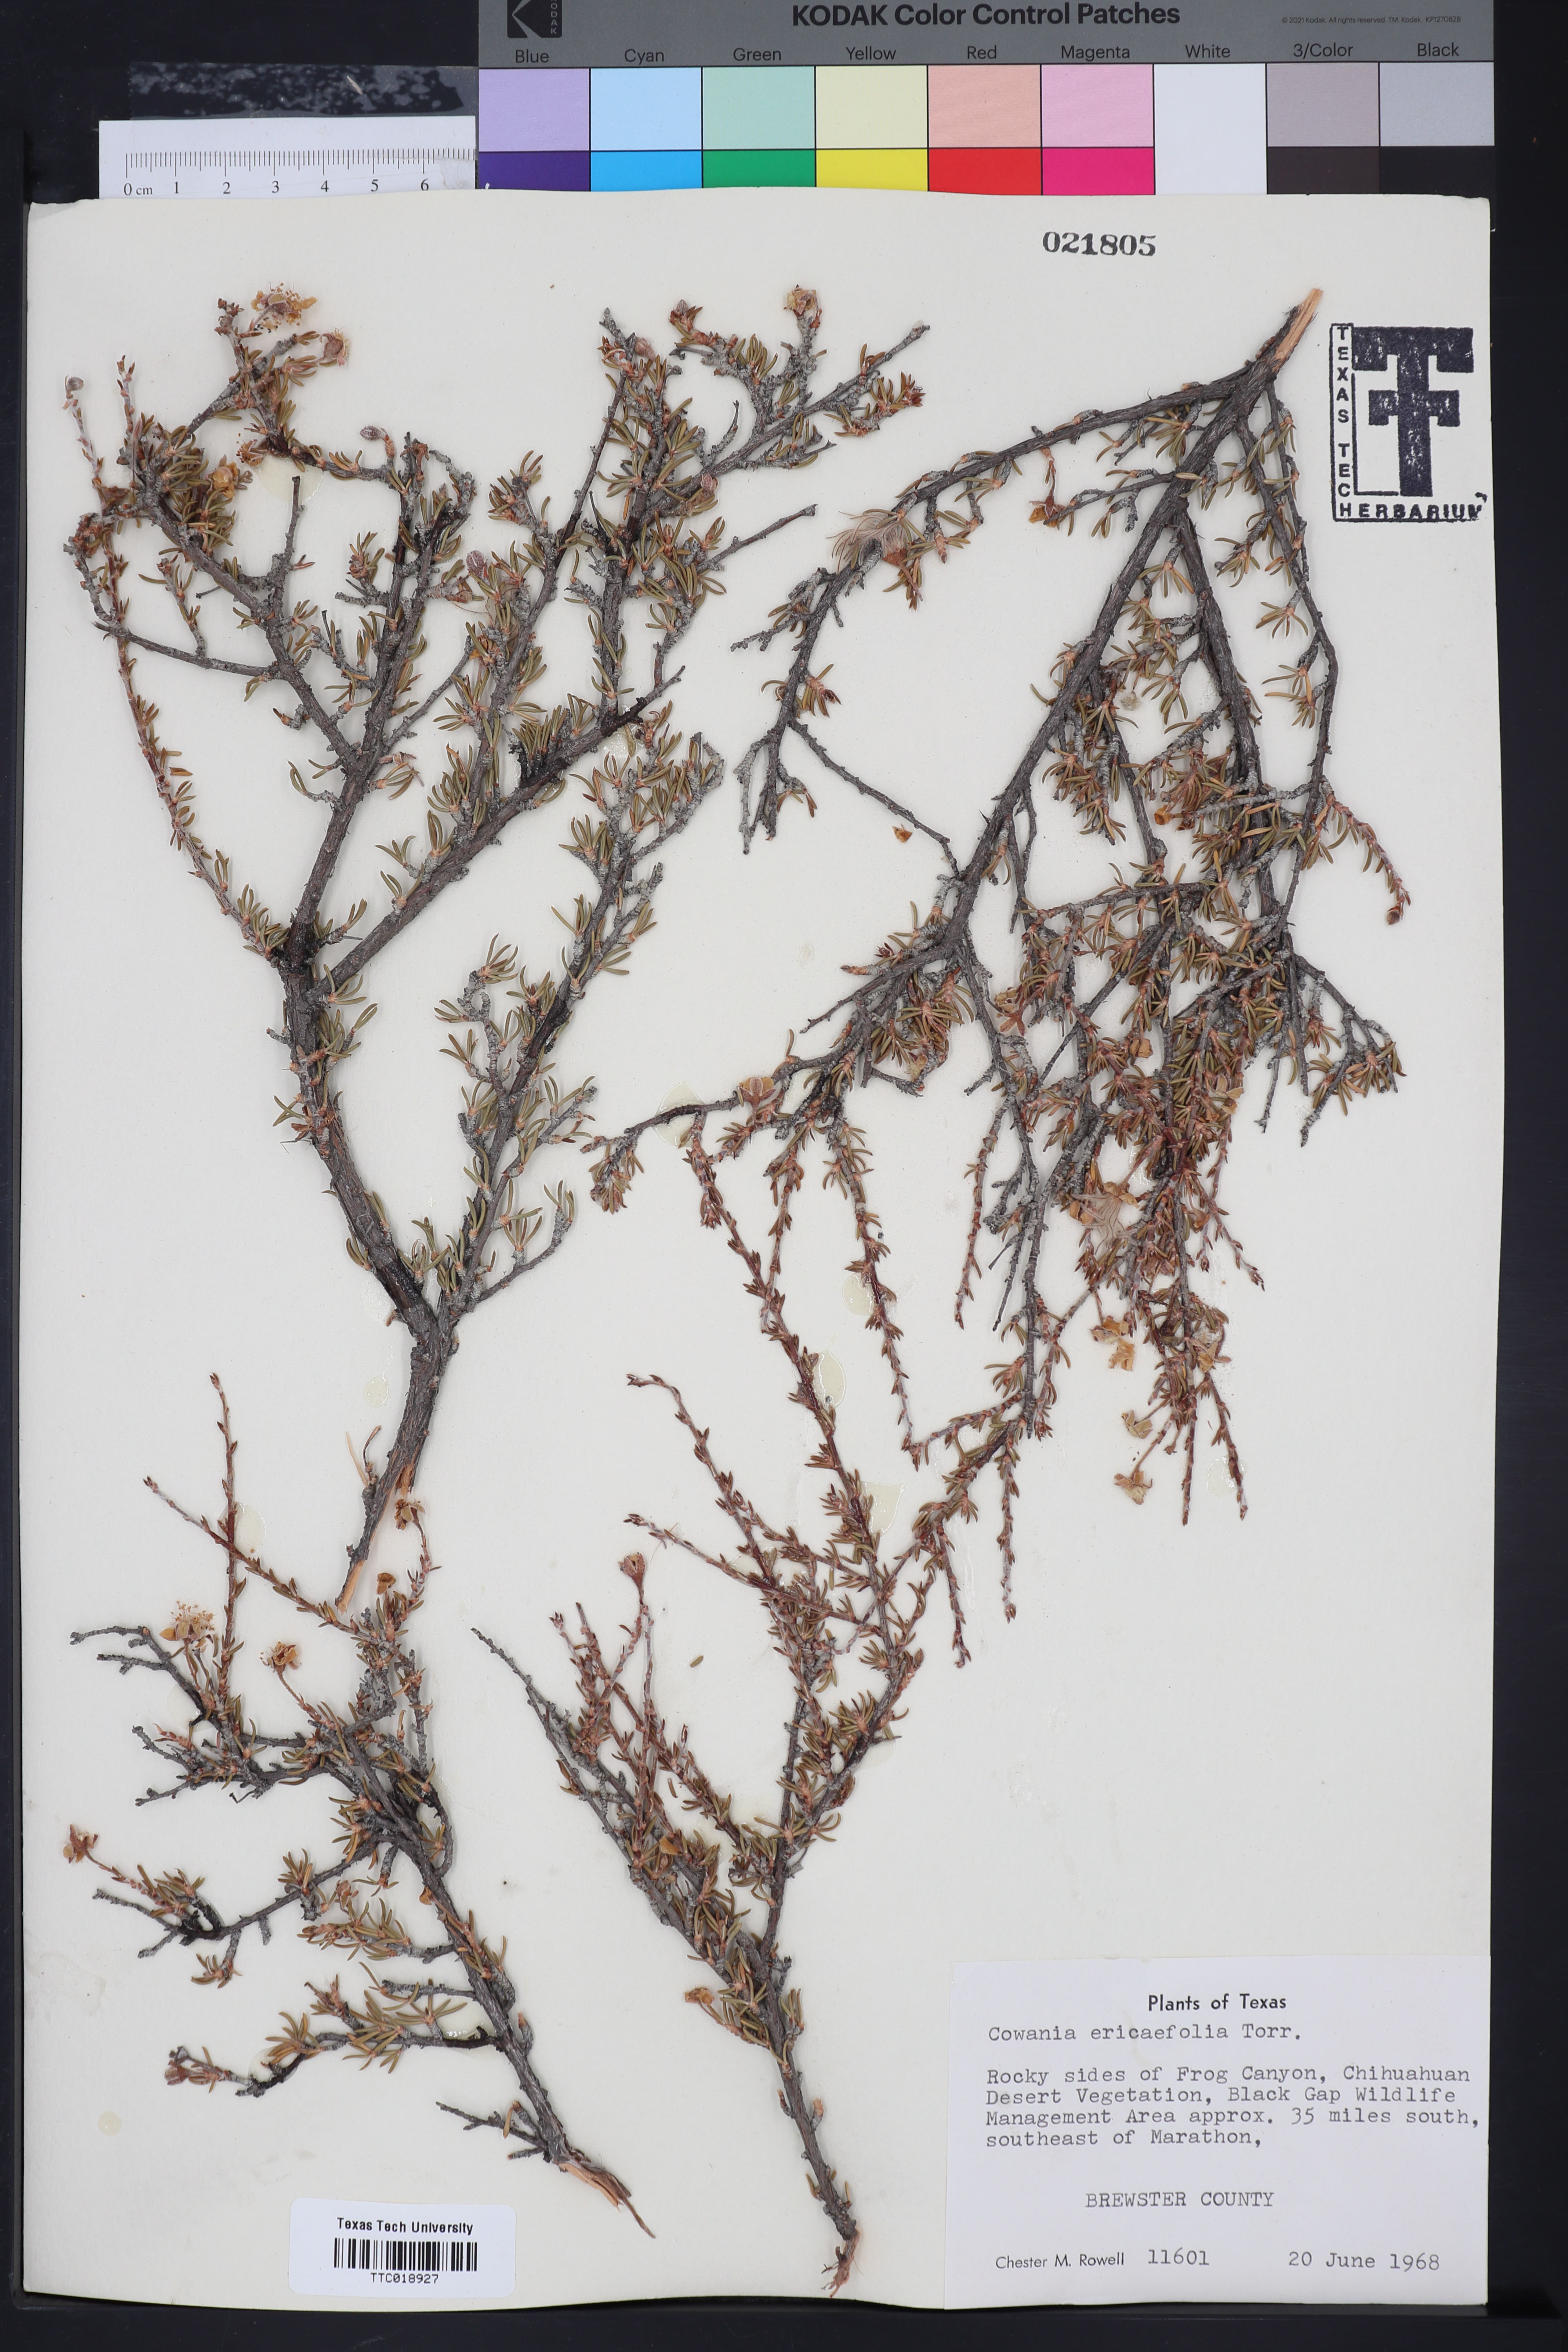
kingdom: Plantae
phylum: Tracheophyta
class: Magnoliopsida
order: Rosales
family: Rosaceae
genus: Purshia
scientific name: Purshia ericifolia
